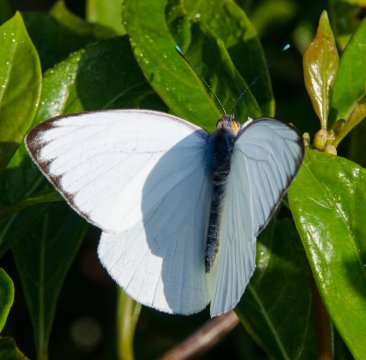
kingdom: Animalia
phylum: Arthropoda
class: Insecta
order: Lepidoptera
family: Pieridae
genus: Ascia
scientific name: Ascia monuste
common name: Great Southern White
